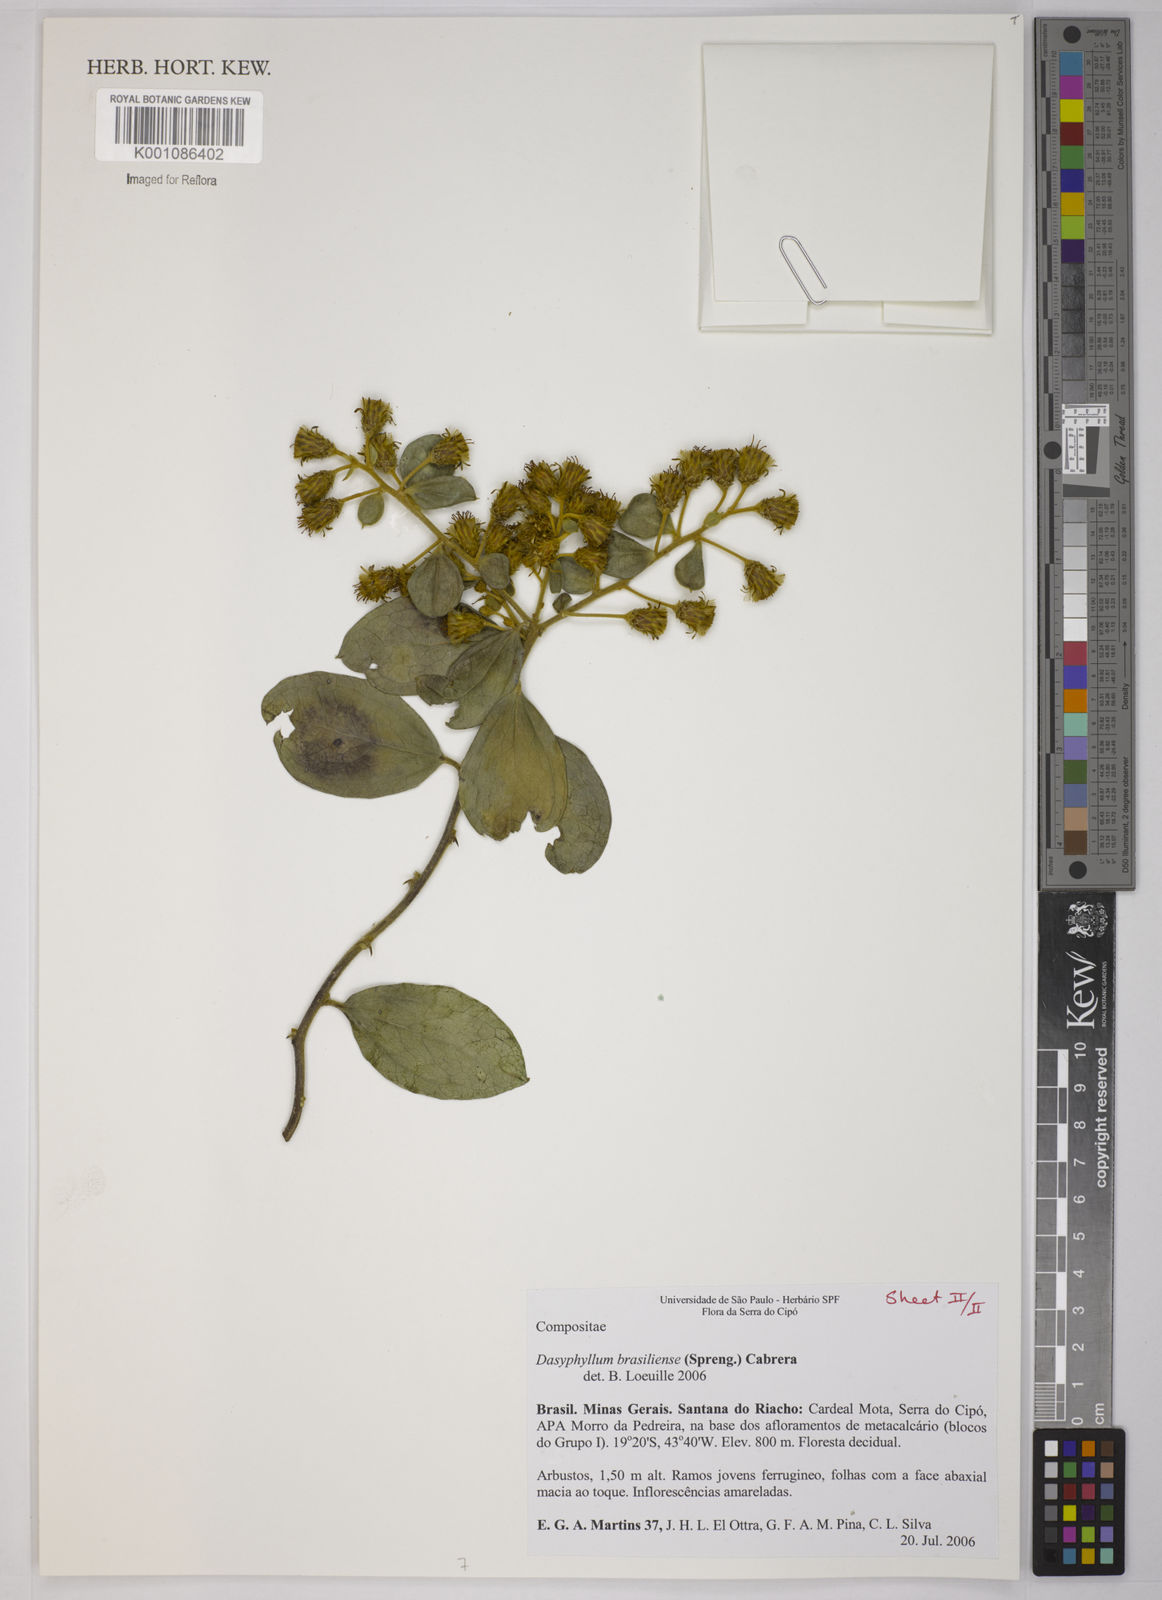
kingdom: Plantae
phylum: Tracheophyta
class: Magnoliopsida
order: Asterales
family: Asteraceae
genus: Dasyphyllum
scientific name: Dasyphyllum brasiliense
